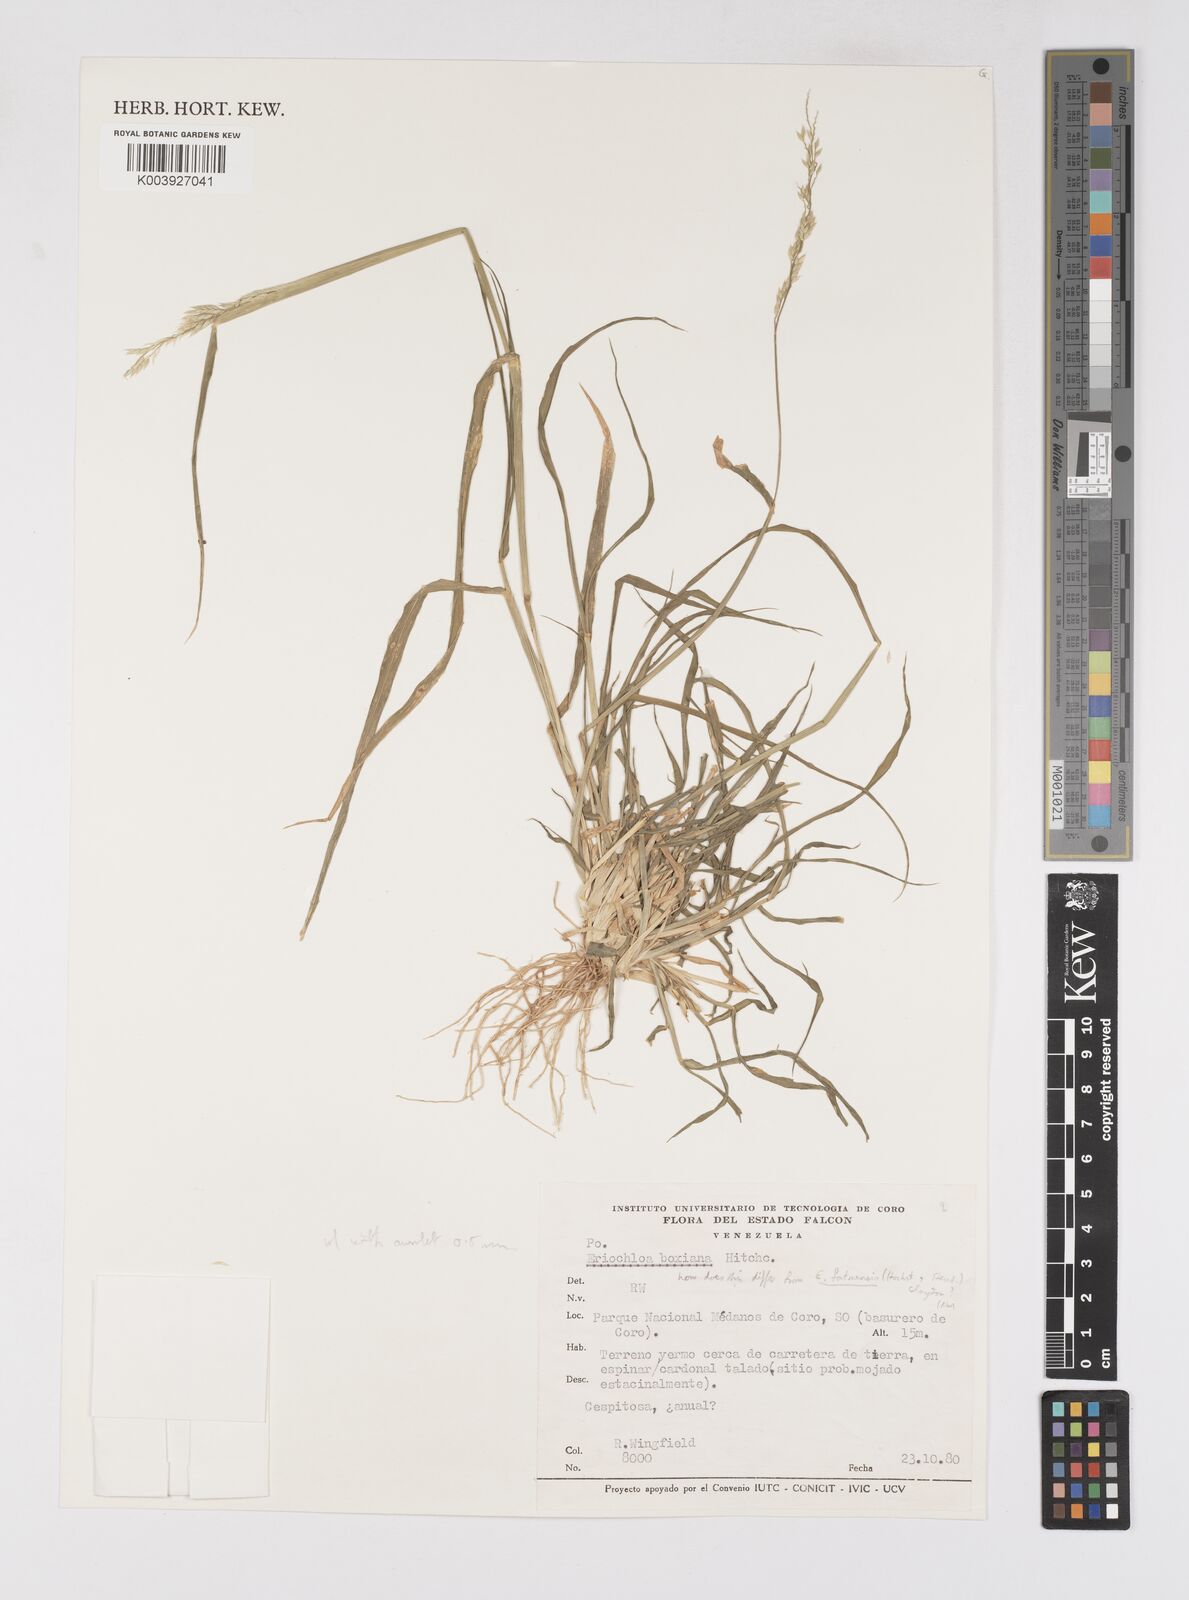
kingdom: Plantae
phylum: Tracheophyta
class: Liliopsida
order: Poales
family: Poaceae
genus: Eriochloa
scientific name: Eriochloa punctata
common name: Louisiana cupgrass
